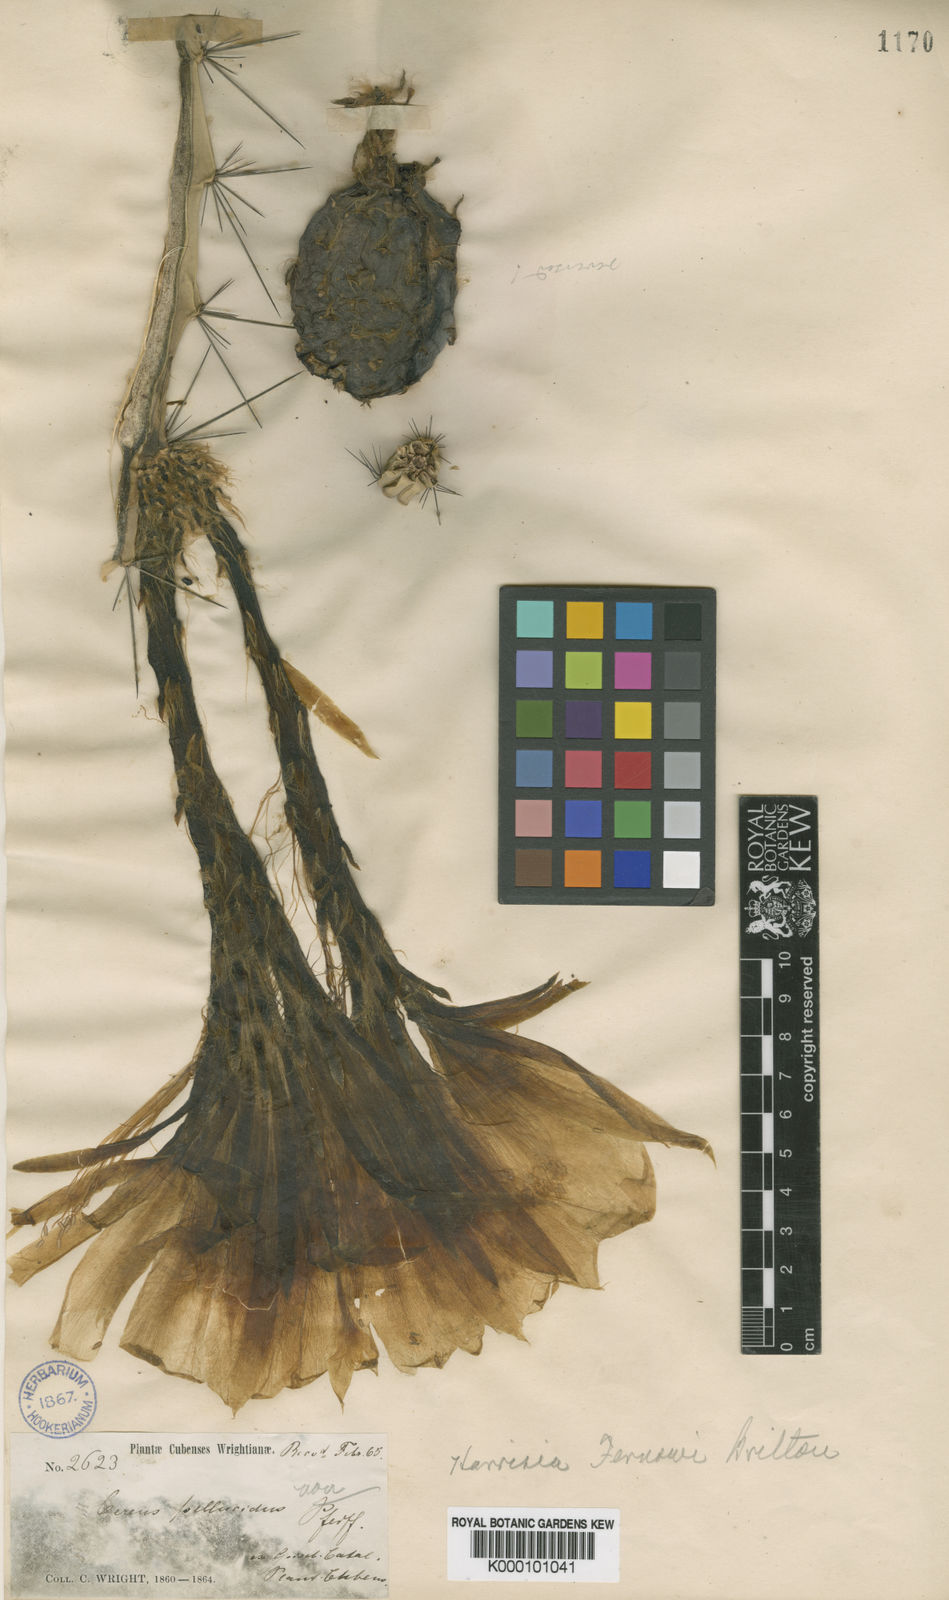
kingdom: Plantae
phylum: Tracheophyta
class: Magnoliopsida
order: Caryophyllales
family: Cactaceae
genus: Harrisia
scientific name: Harrisia fernowii
